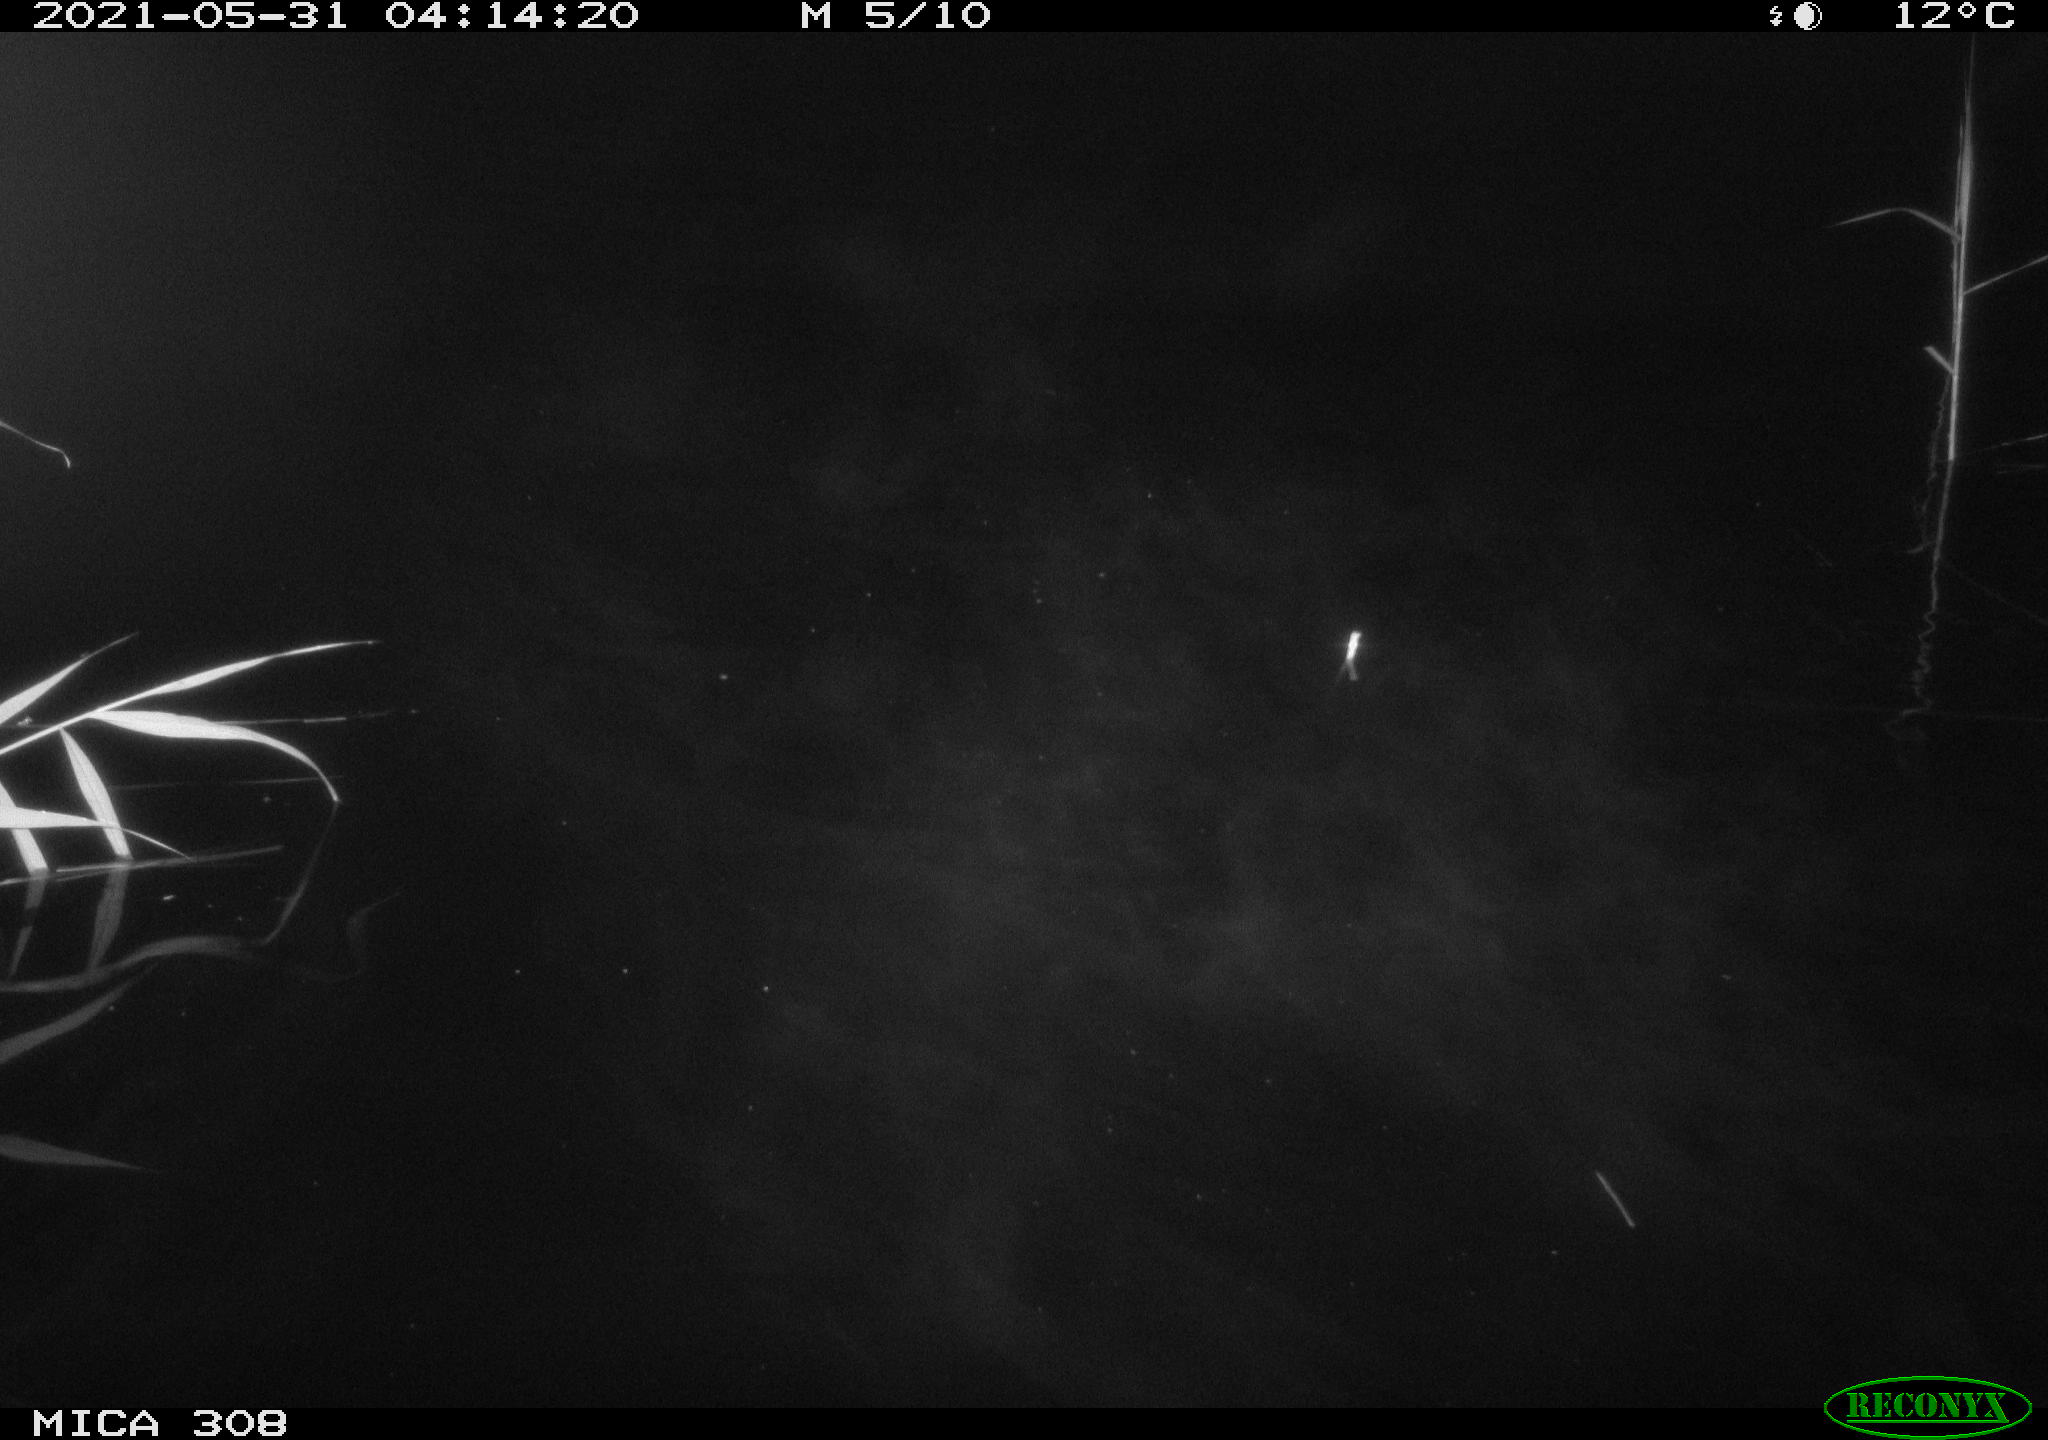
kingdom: Animalia
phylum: Chordata
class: Aves
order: Anseriformes
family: Anatidae
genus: Anas
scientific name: Anas platyrhynchos
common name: Mallard
